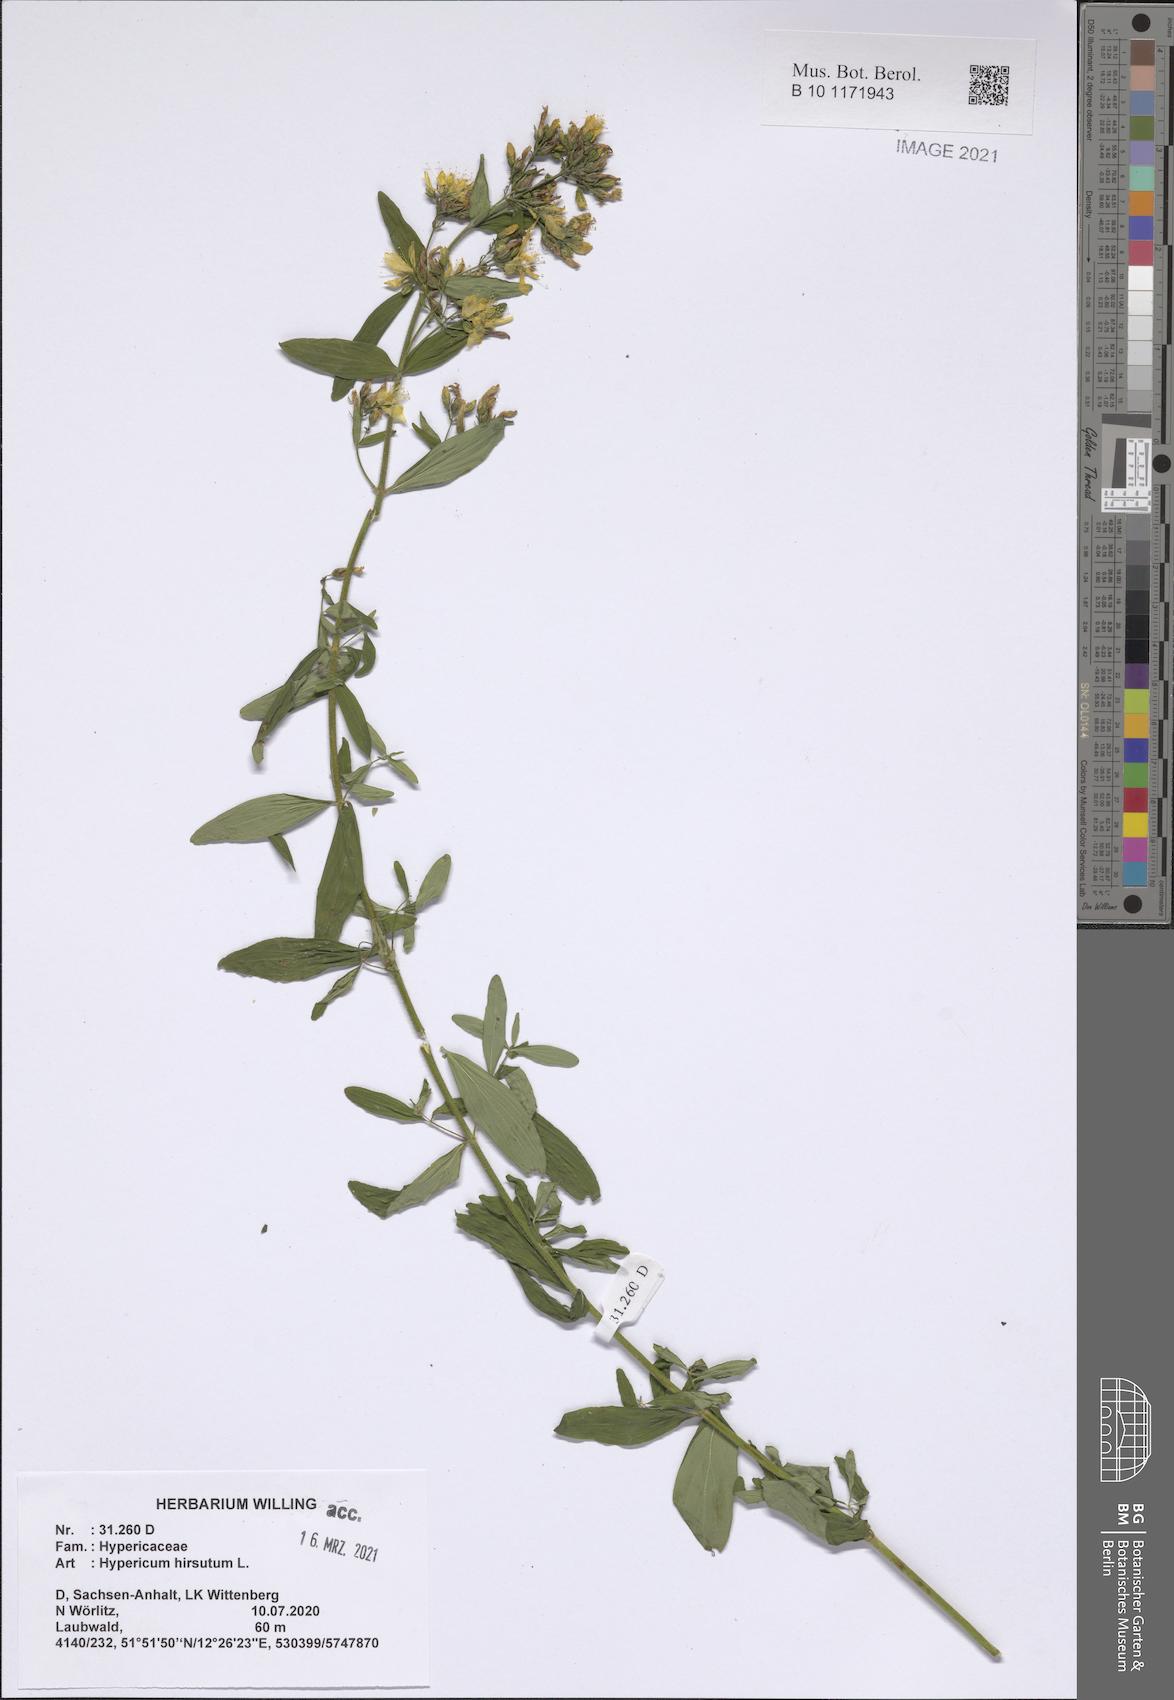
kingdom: Plantae
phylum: Tracheophyta
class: Magnoliopsida
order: Malpighiales
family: Hypericaceae
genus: Hypericum
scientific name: Hypericum hirsutum
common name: Hairy st. john's-wort
